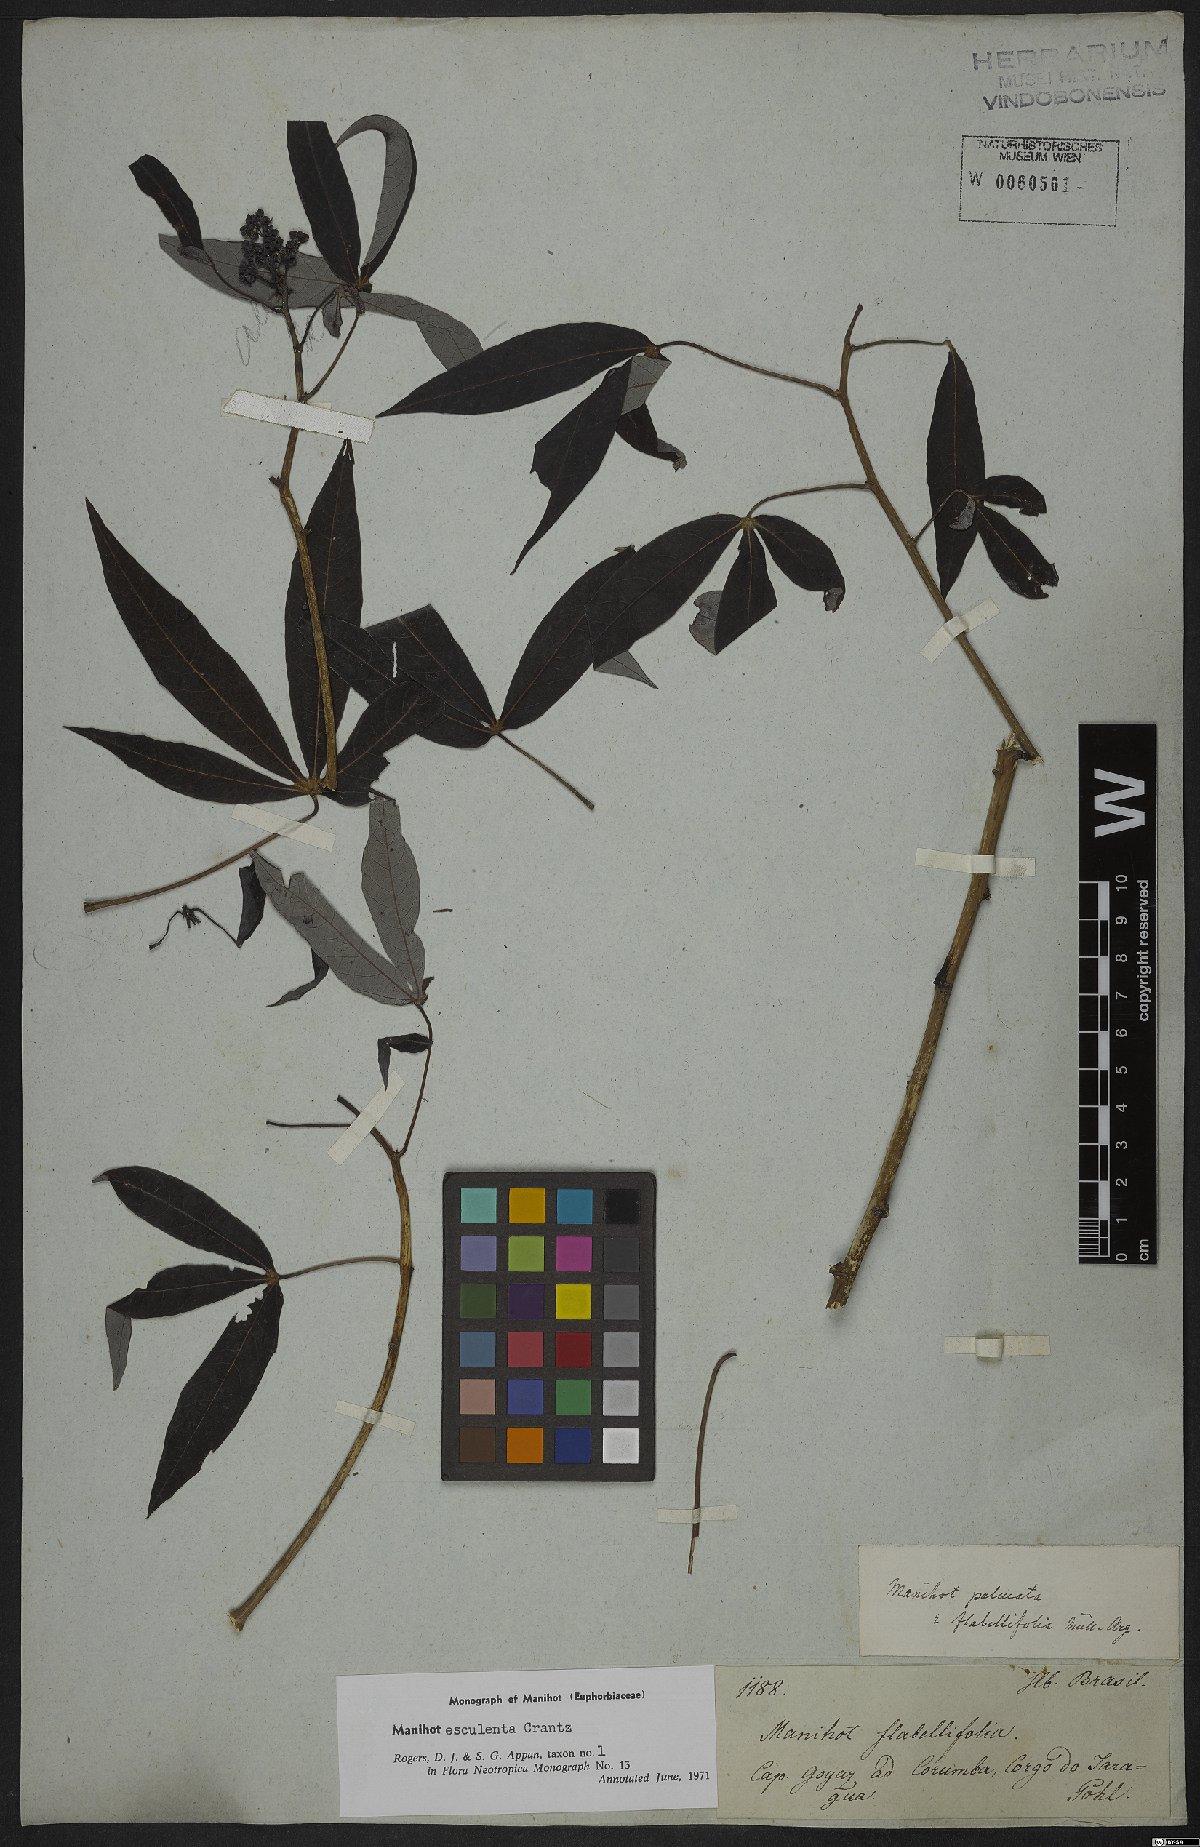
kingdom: Plantae
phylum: Tracheophyta
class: Magnoliopsida
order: Malpighiales
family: Euphorbiaceae
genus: Manihot
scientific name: Manihot esculenta
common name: Cassava
